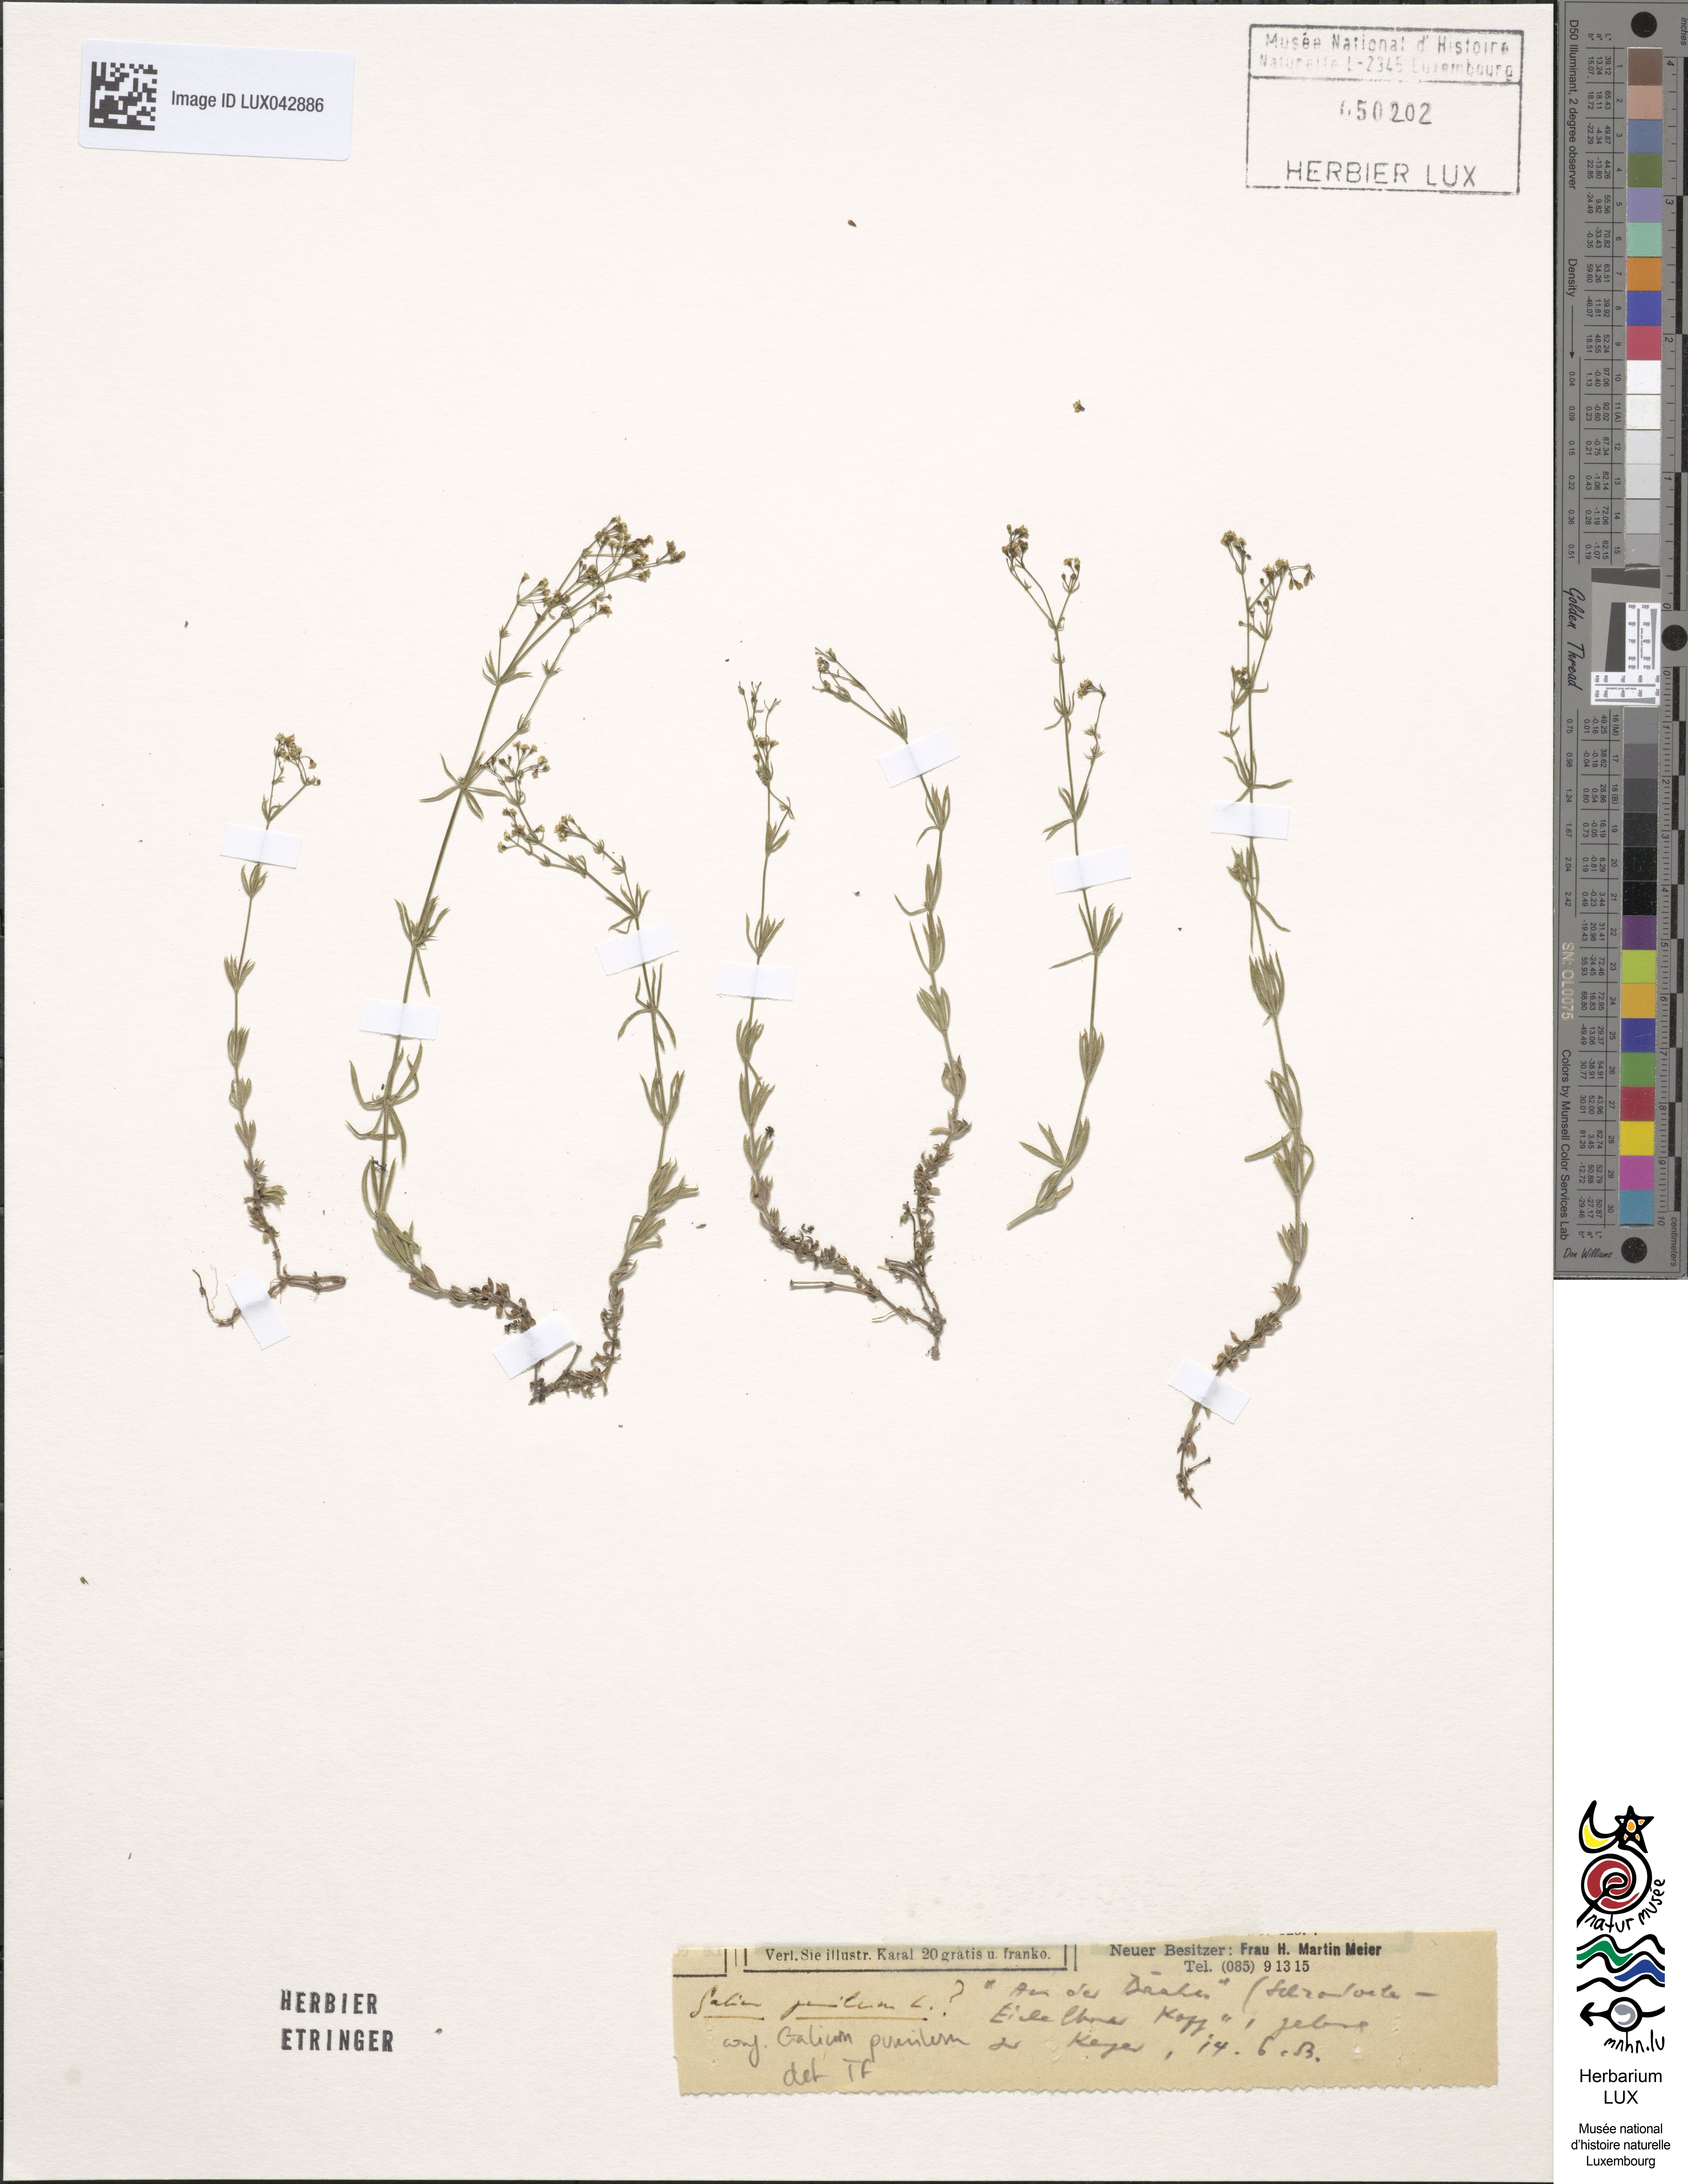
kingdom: Plantae
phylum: Tracheophyta
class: Magnoliopsida
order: Gentianales
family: Rubiaceae
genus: Galium
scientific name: Galium pumilum
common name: Slender bedstraw
